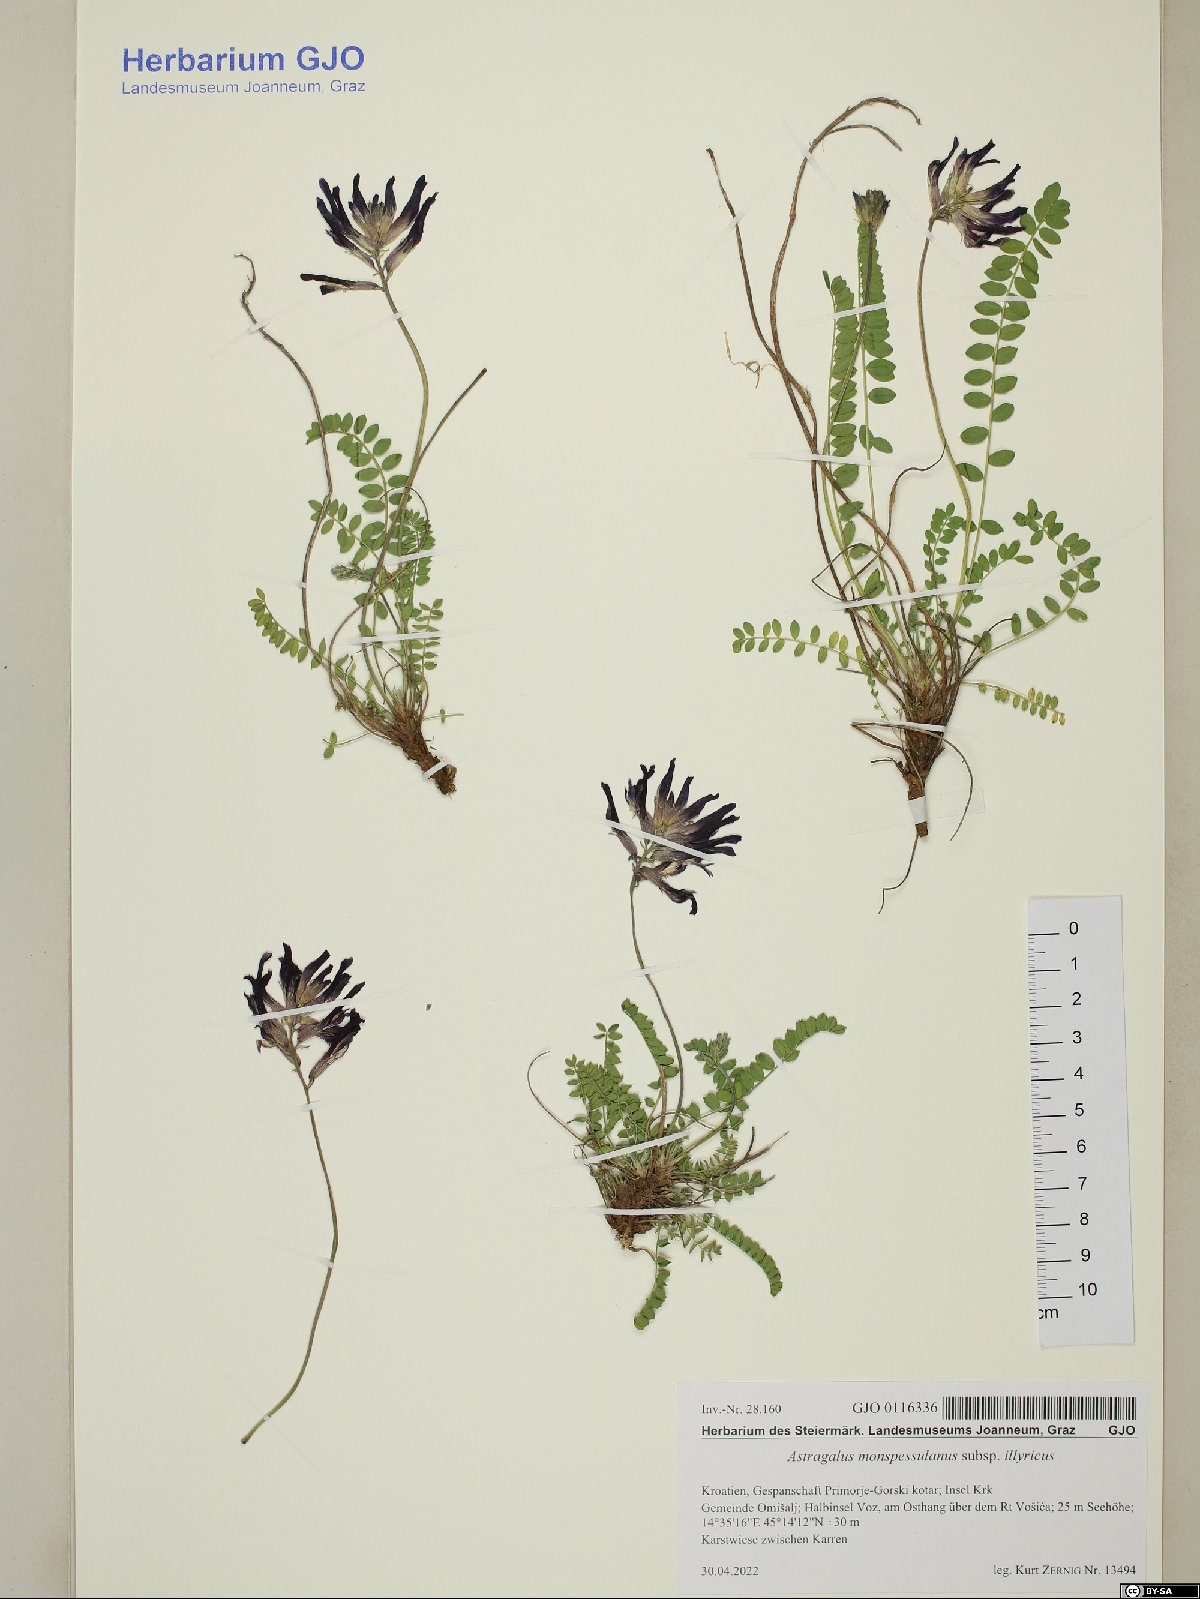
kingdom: Plantae
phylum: Tracheophyta
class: Magnoliopsida
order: Fabales
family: Fabaceae
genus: Astragalus
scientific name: Astragalus monspessulanus
